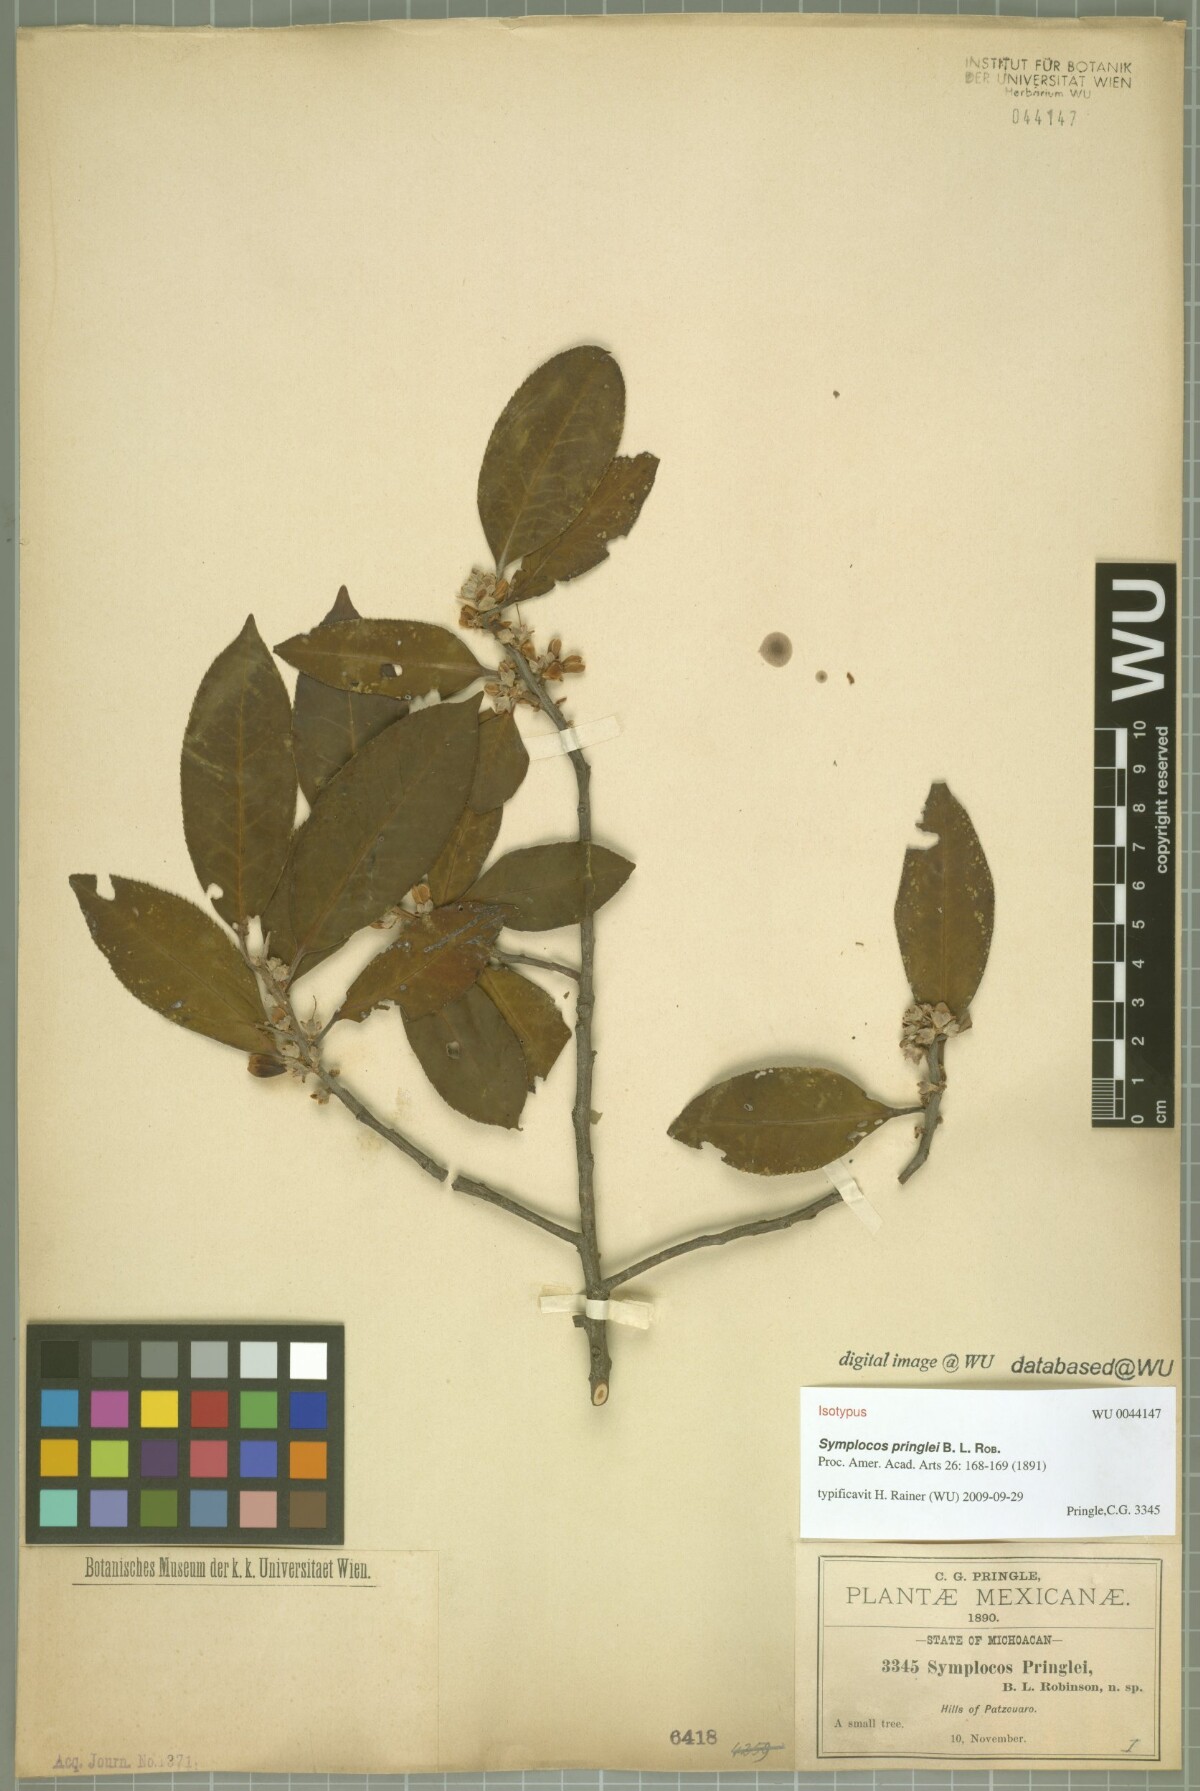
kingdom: Plantae
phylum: Tracheophyta
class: Magnoliopsida
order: Ericales
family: Symplocaceae
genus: Symplocos
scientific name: Symplocos citrea
